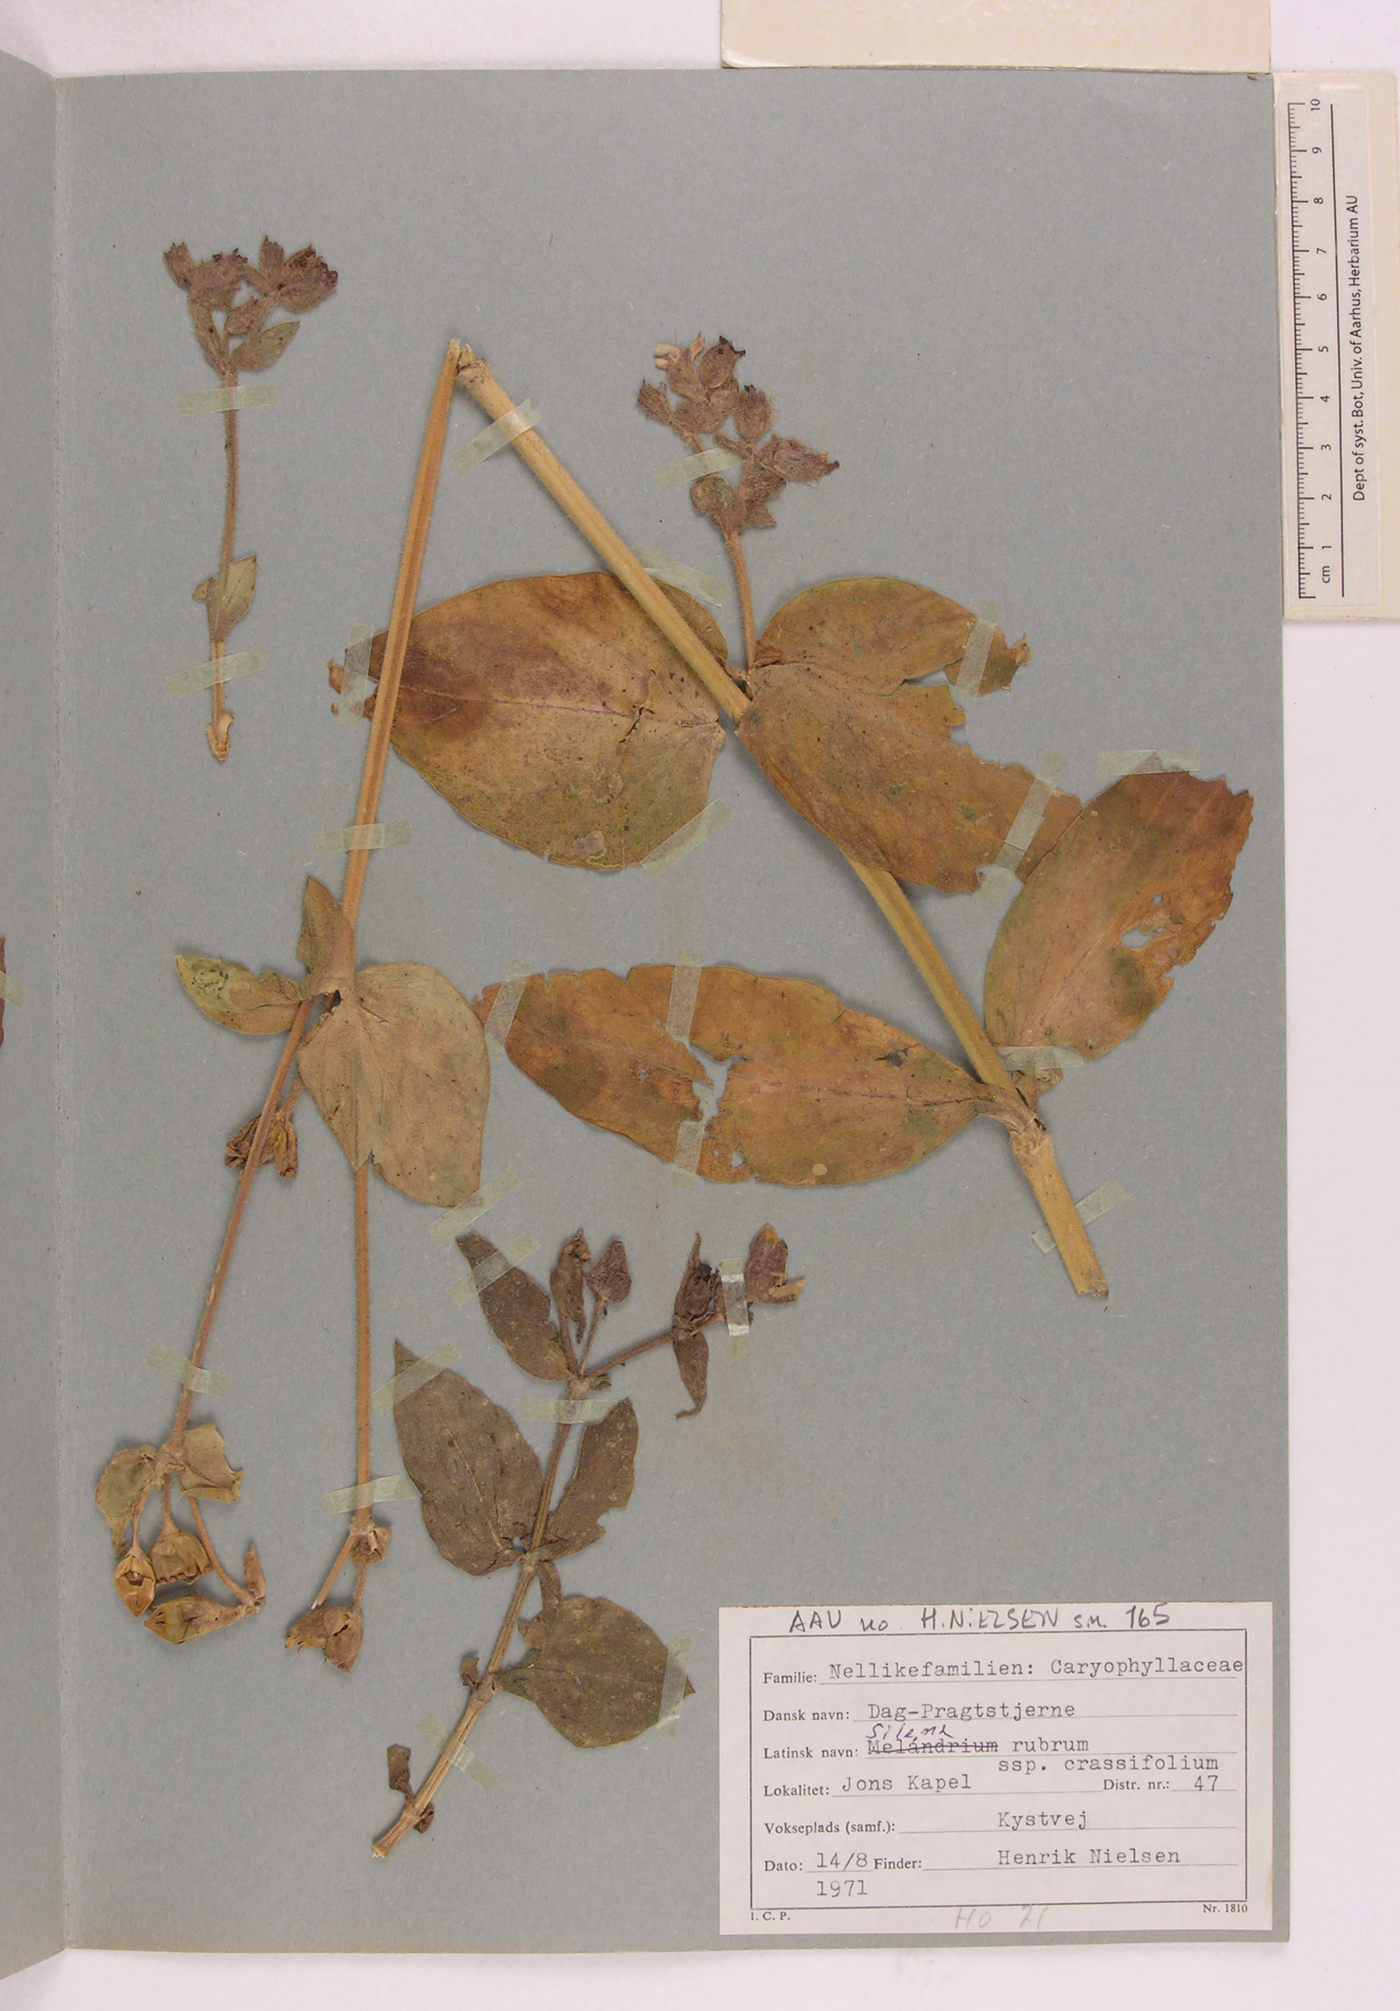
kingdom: Plantae
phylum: Tracheophyta
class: Magnoliopsida
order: Caryophyllales
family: Caryophyllaceae
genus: Silene
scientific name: Silene dioica
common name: Red campion
